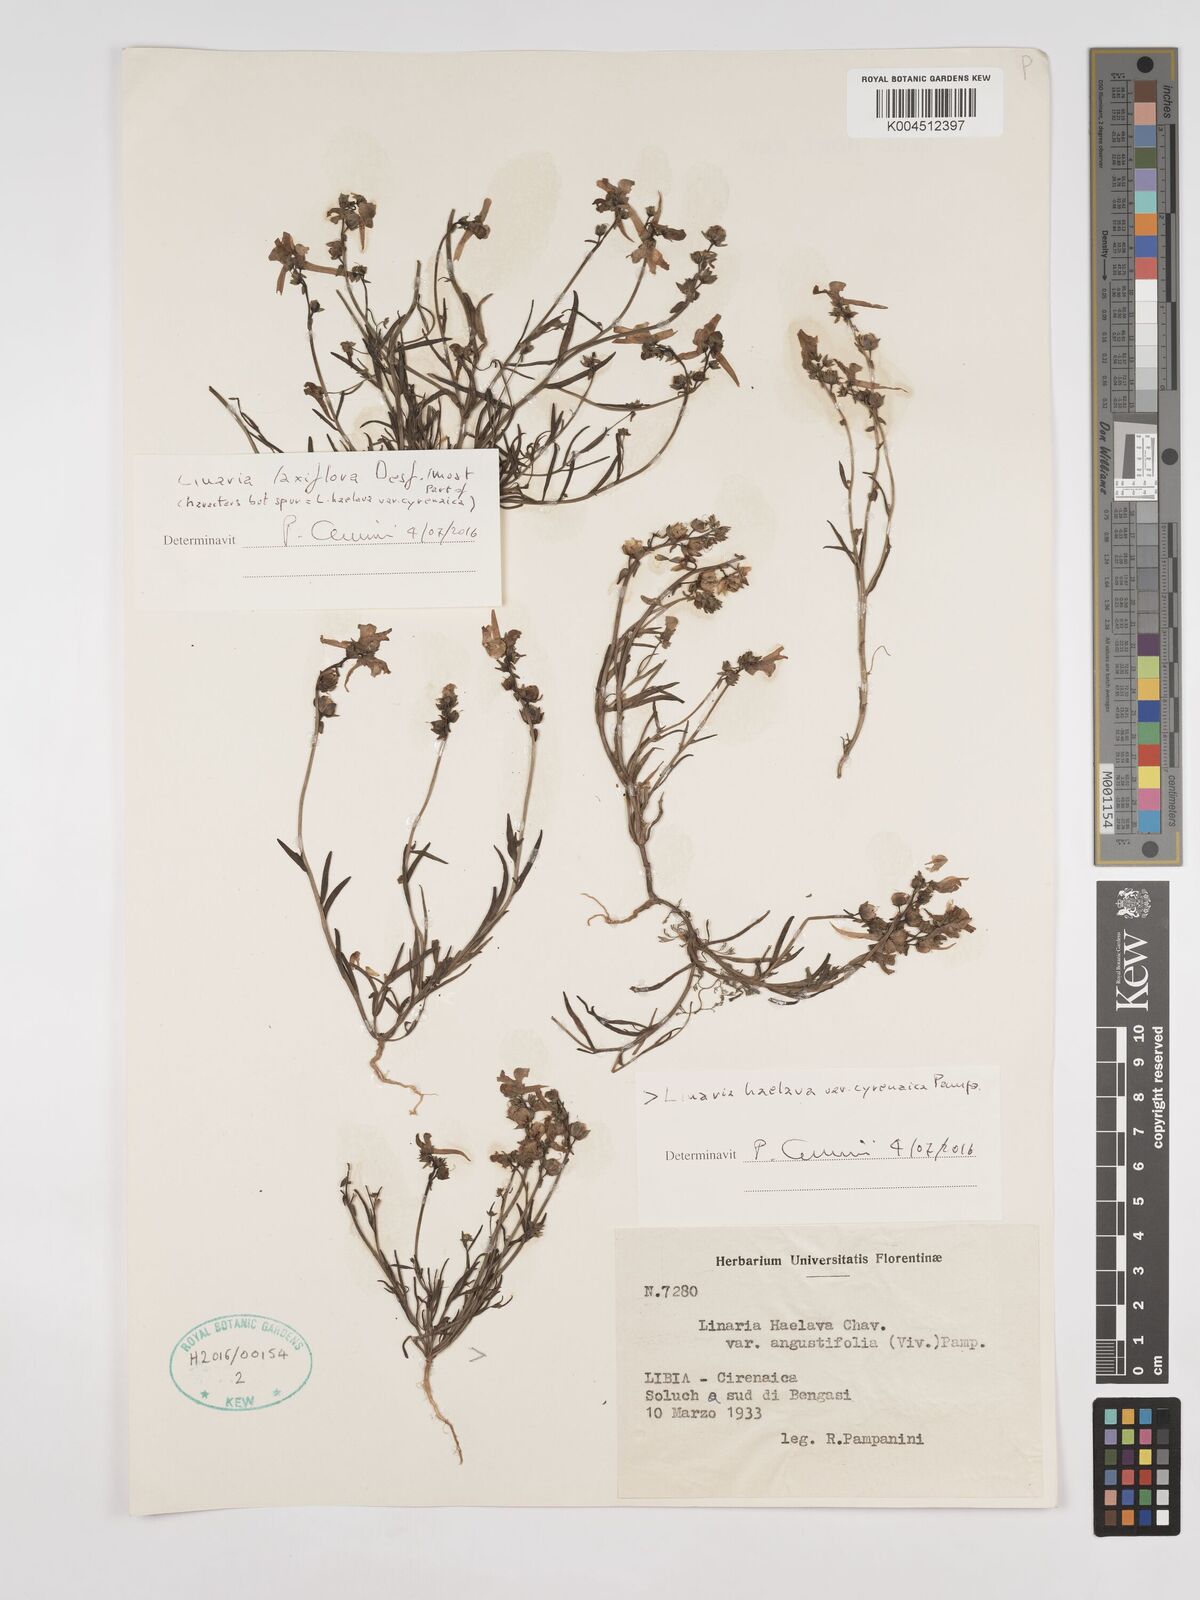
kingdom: Plantae
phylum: Tracheophyta
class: Magnoliopsida
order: Lamiales
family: Plantaginaceae
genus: Linaria
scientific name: Linaria haelava
